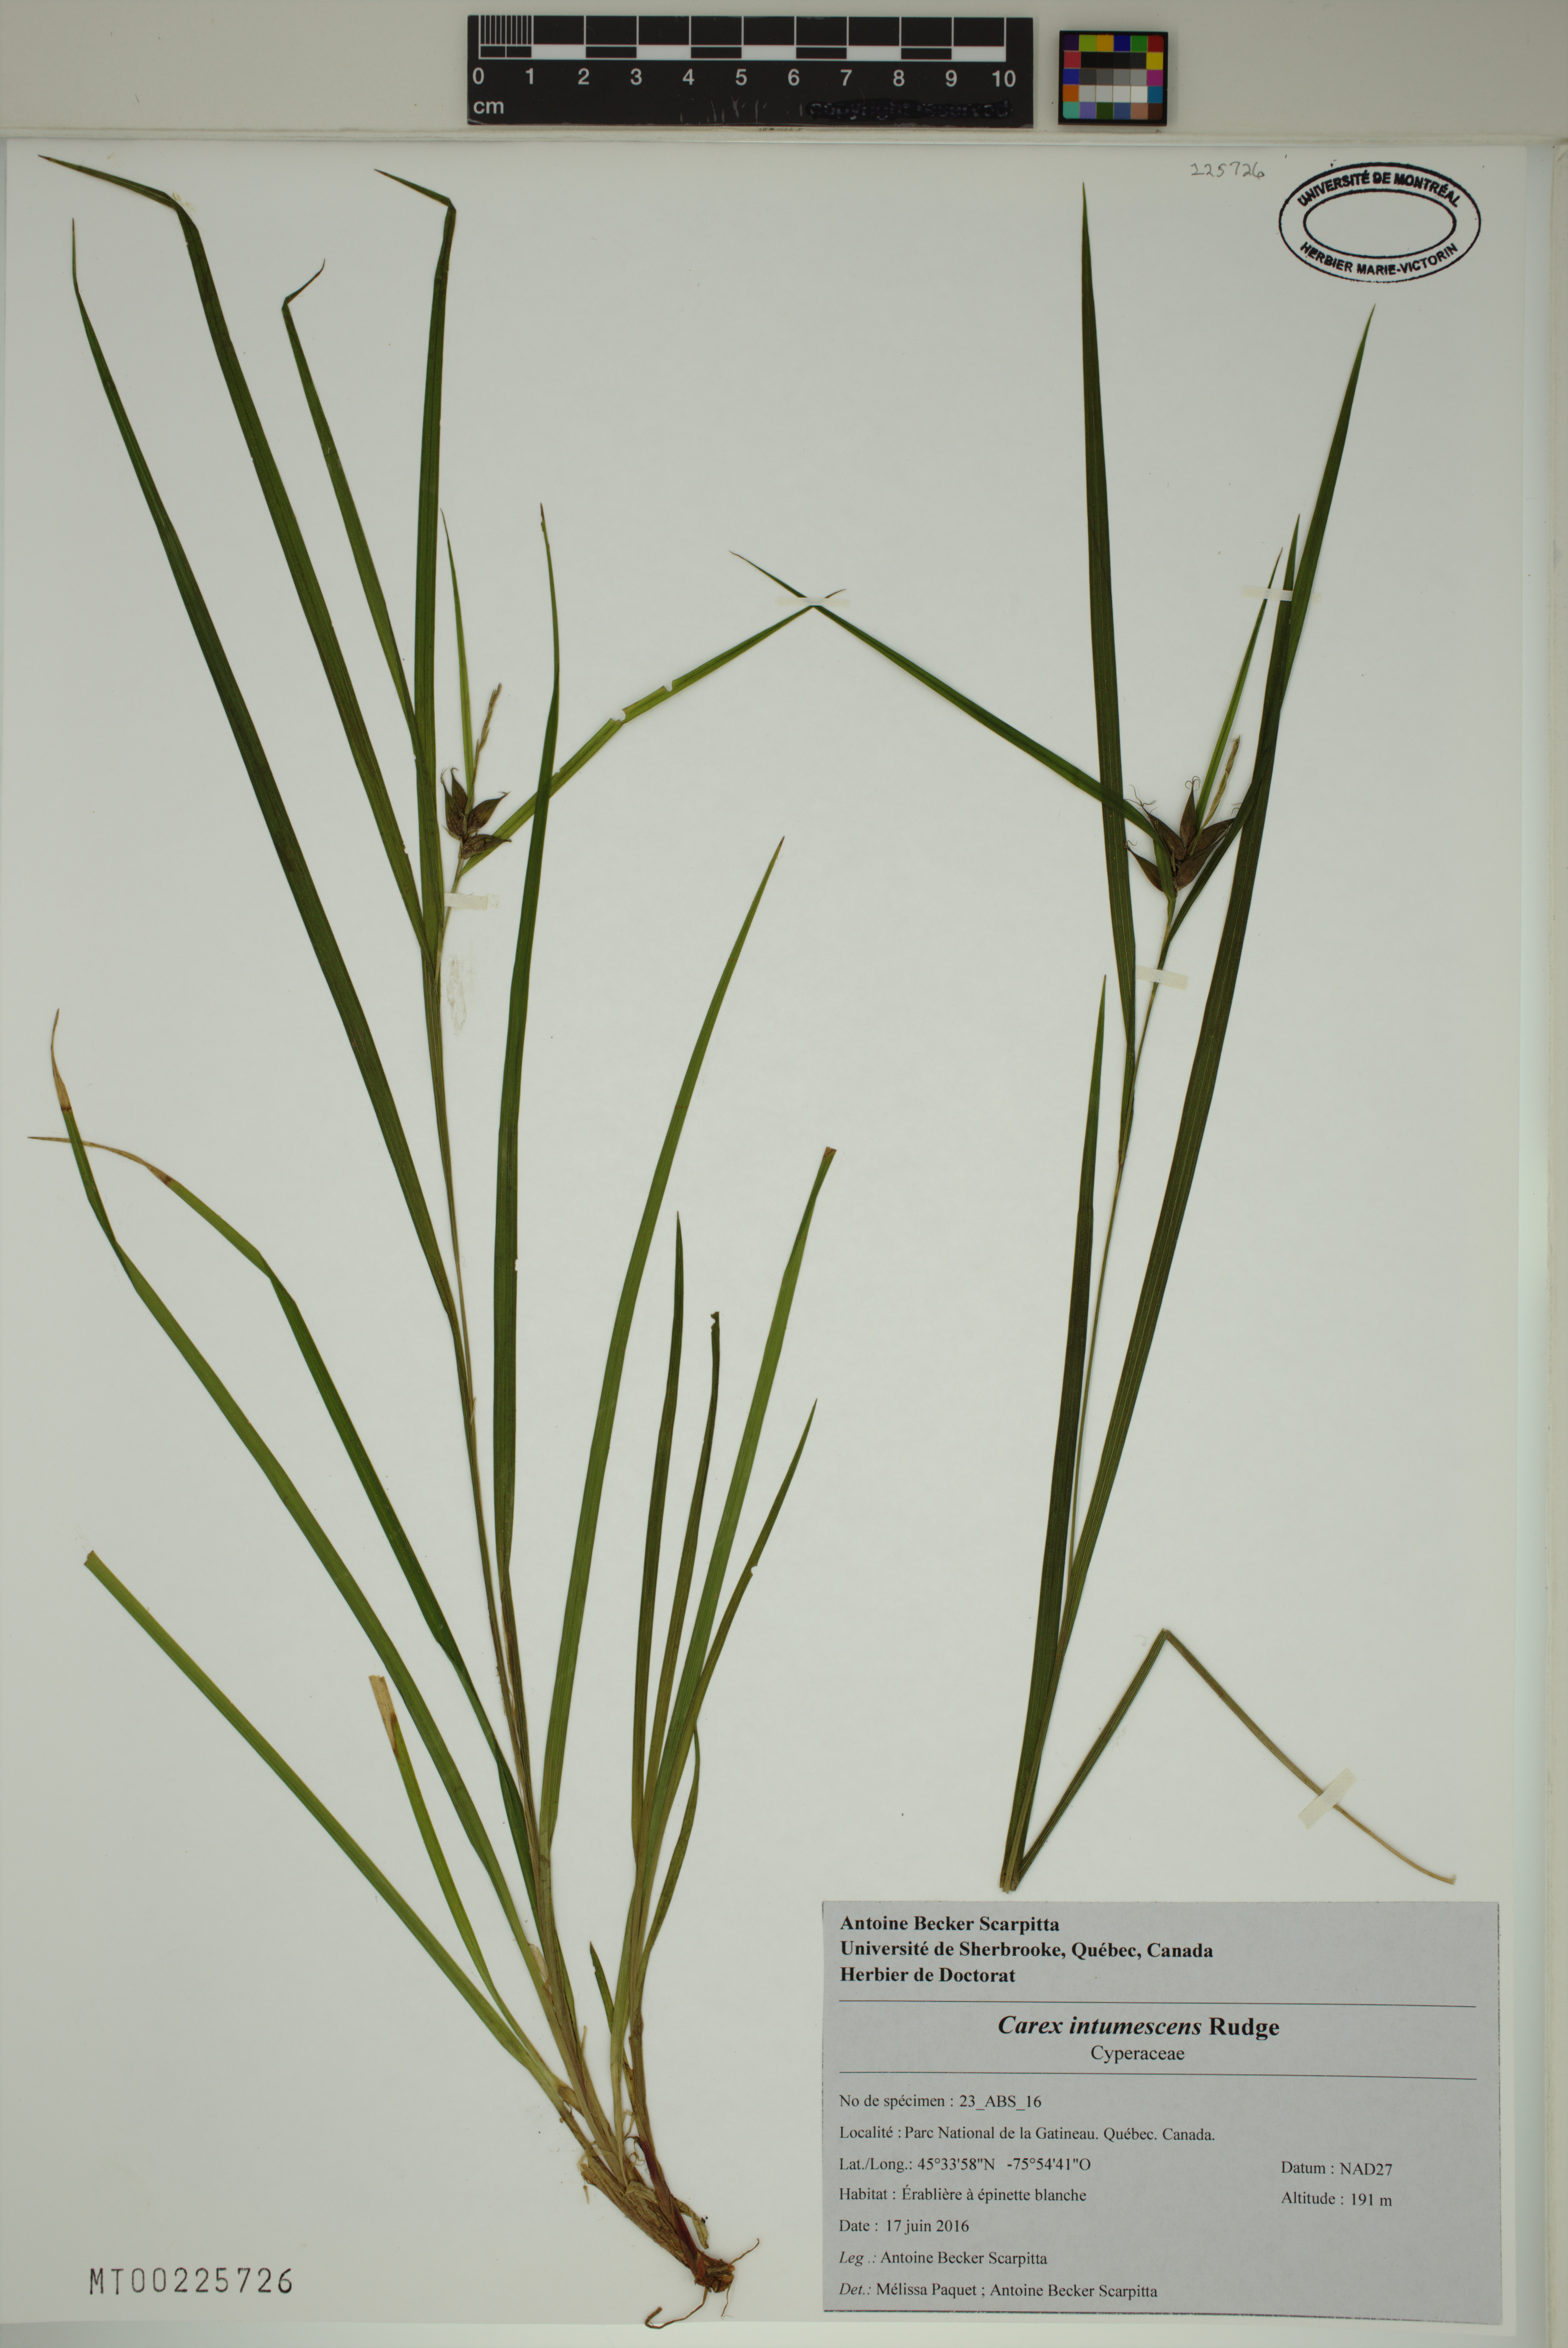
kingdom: Plantae
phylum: Tracheophyta
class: Liliopsida
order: Poales
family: Cyperaceae
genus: Carex
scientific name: Carex intumescens
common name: Greater bladder sedge
